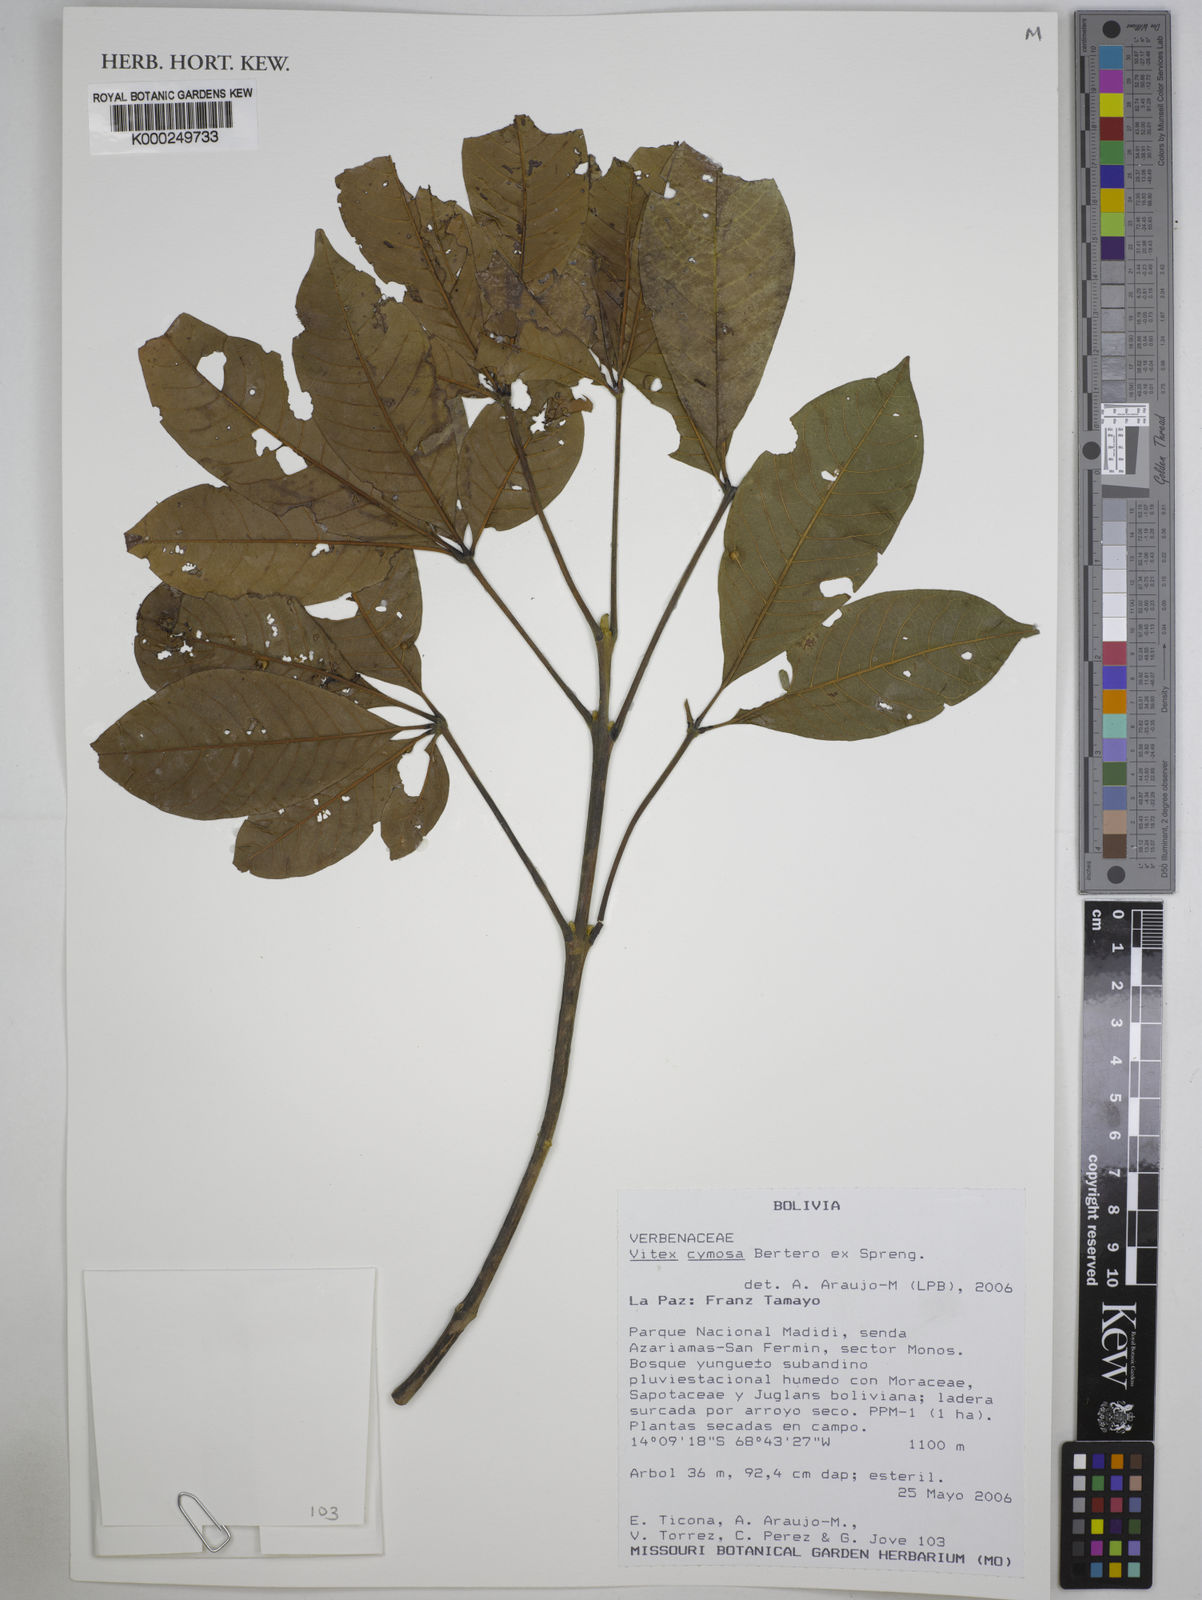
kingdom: Plantae
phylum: Tracheophyta
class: Magnoliopsida
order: Lamiales
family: Lamiaceae
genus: Vitex
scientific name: Vitex cymosa
